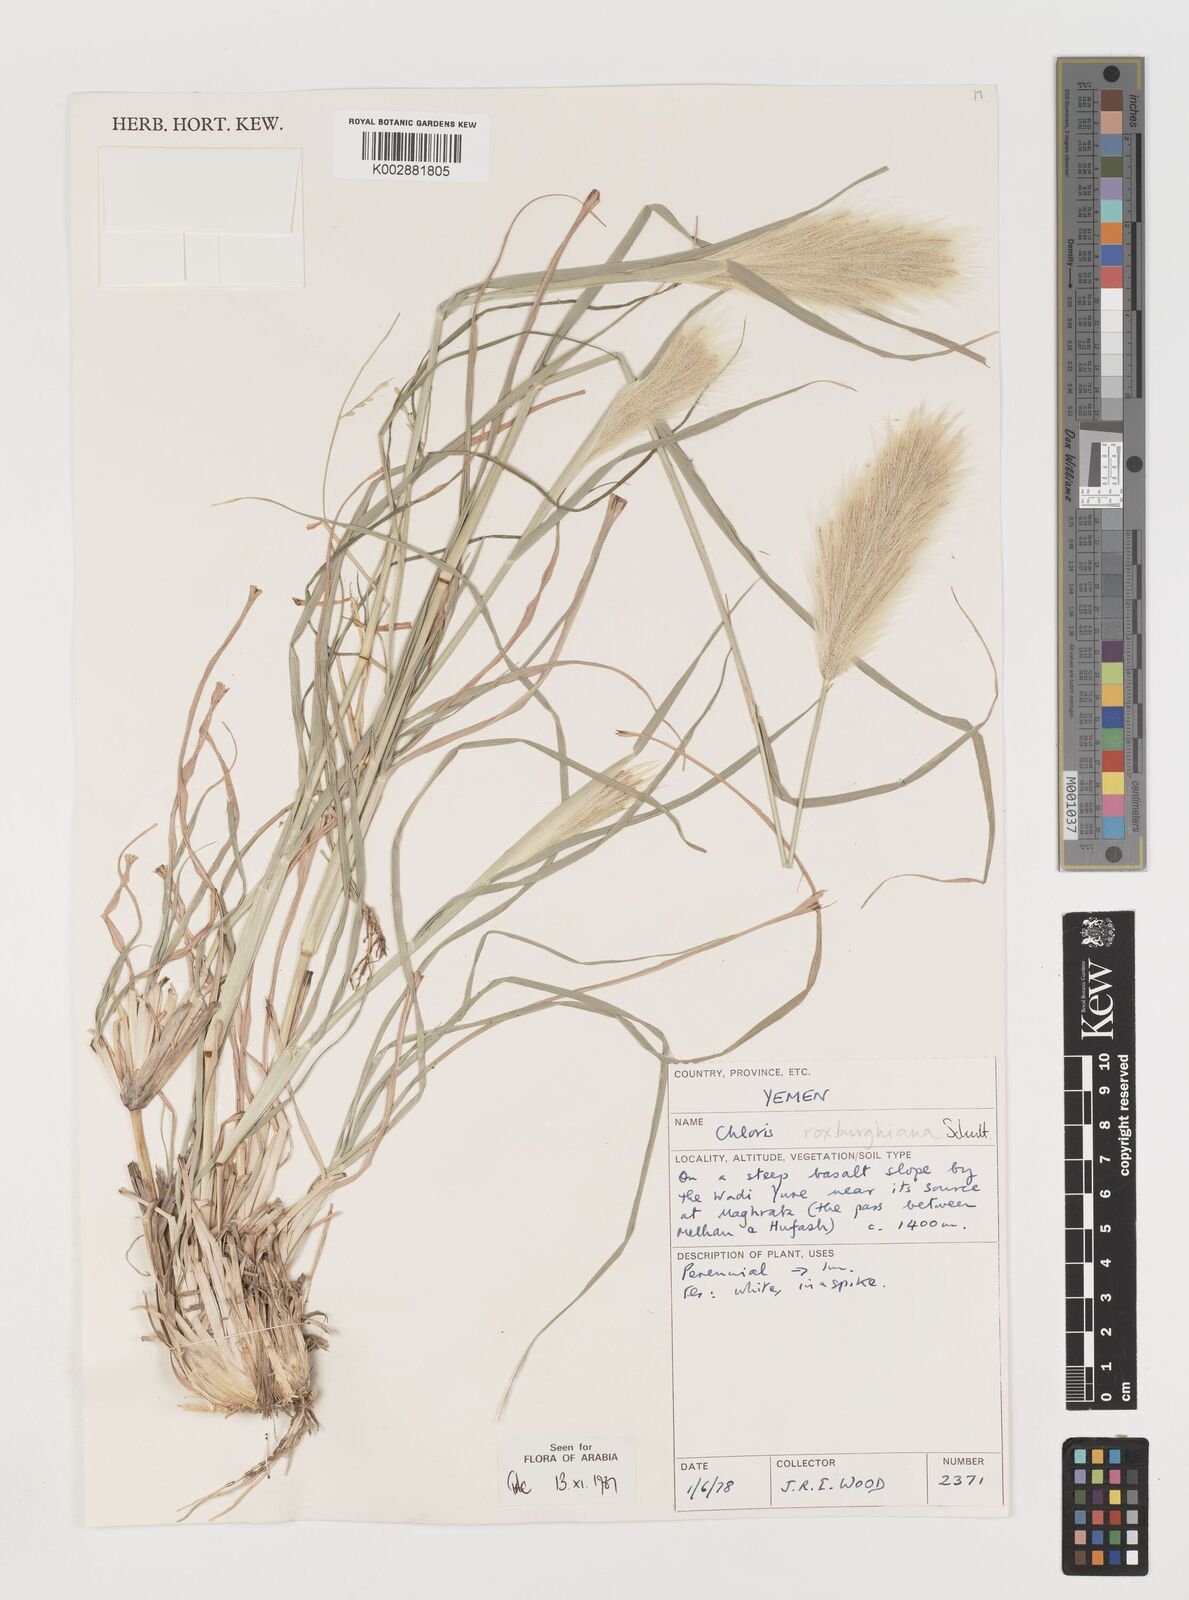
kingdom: Plantae
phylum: Tracheophyta
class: Liliopsida
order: Poales
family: Poaceae
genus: Tetrapogon
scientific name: Tetrapogon roxburghiana
